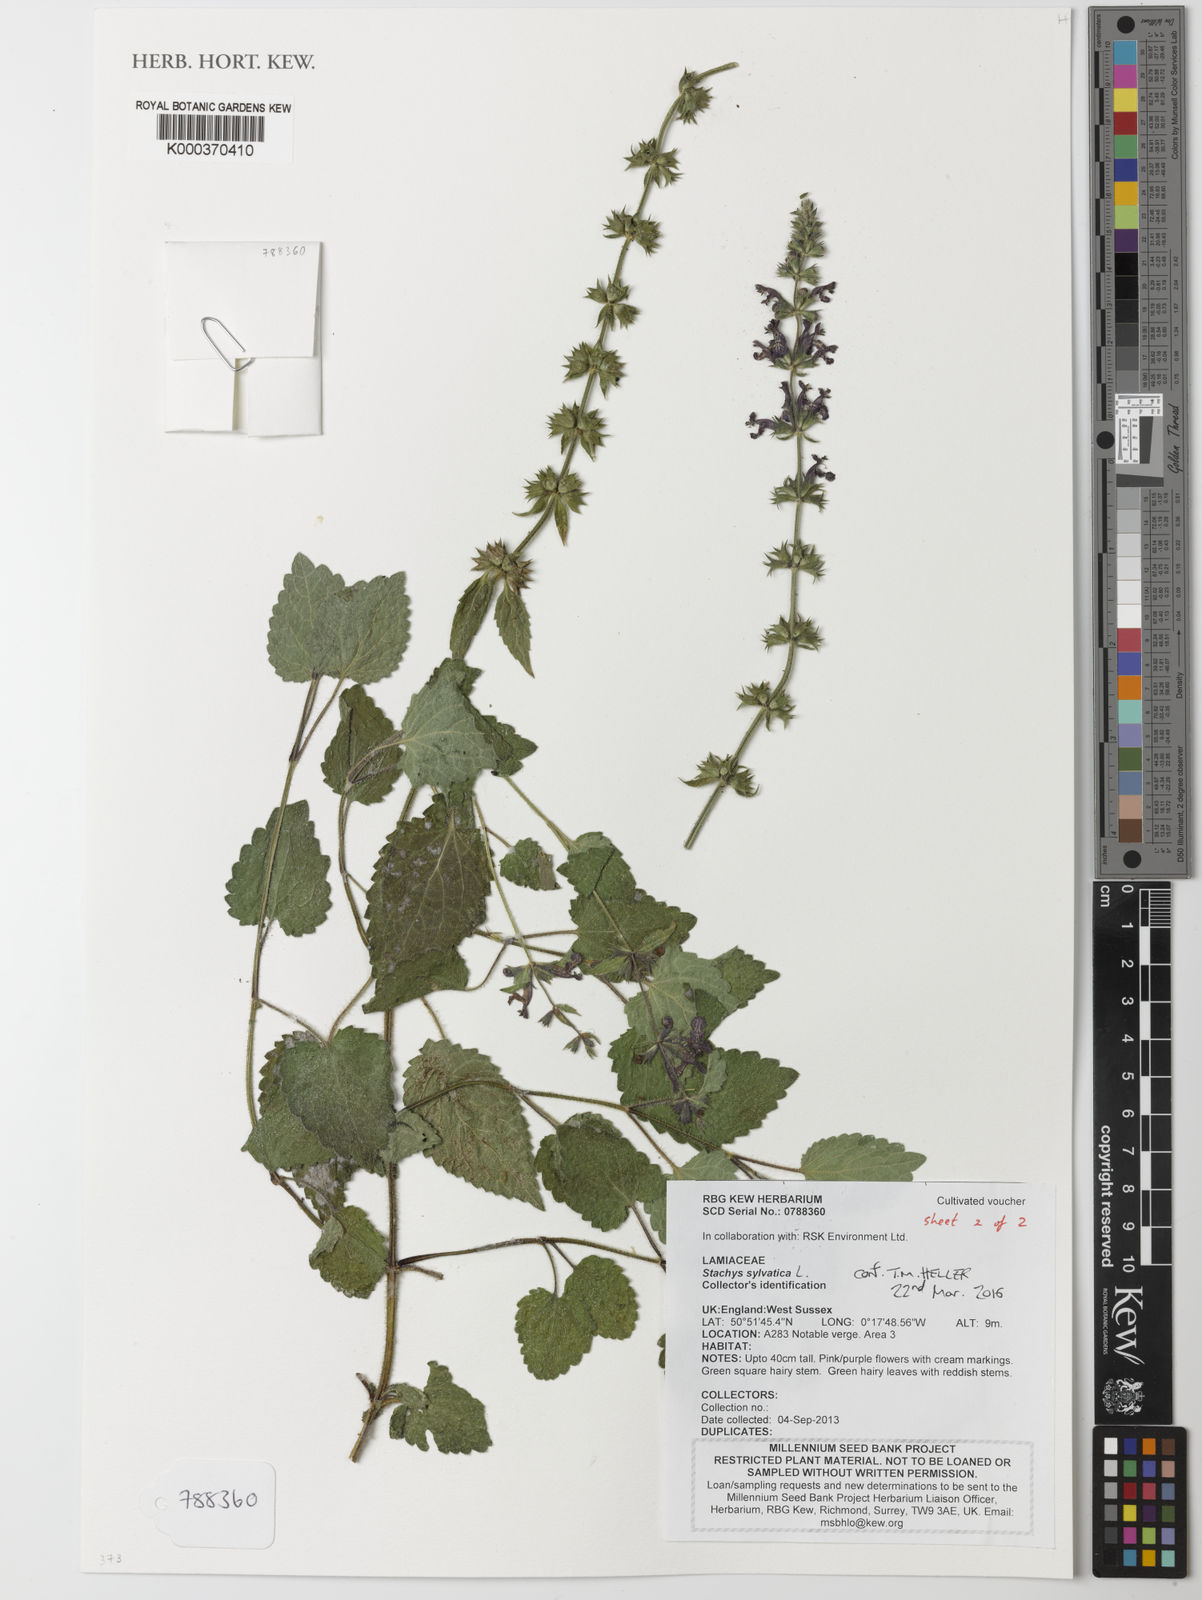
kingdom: Plantae
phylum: Tracheophyta
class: Magnoliopsida
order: Lamiales
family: Lamiaceae
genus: Stachys
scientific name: Stachys sylvatica
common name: Hedge woundwort
